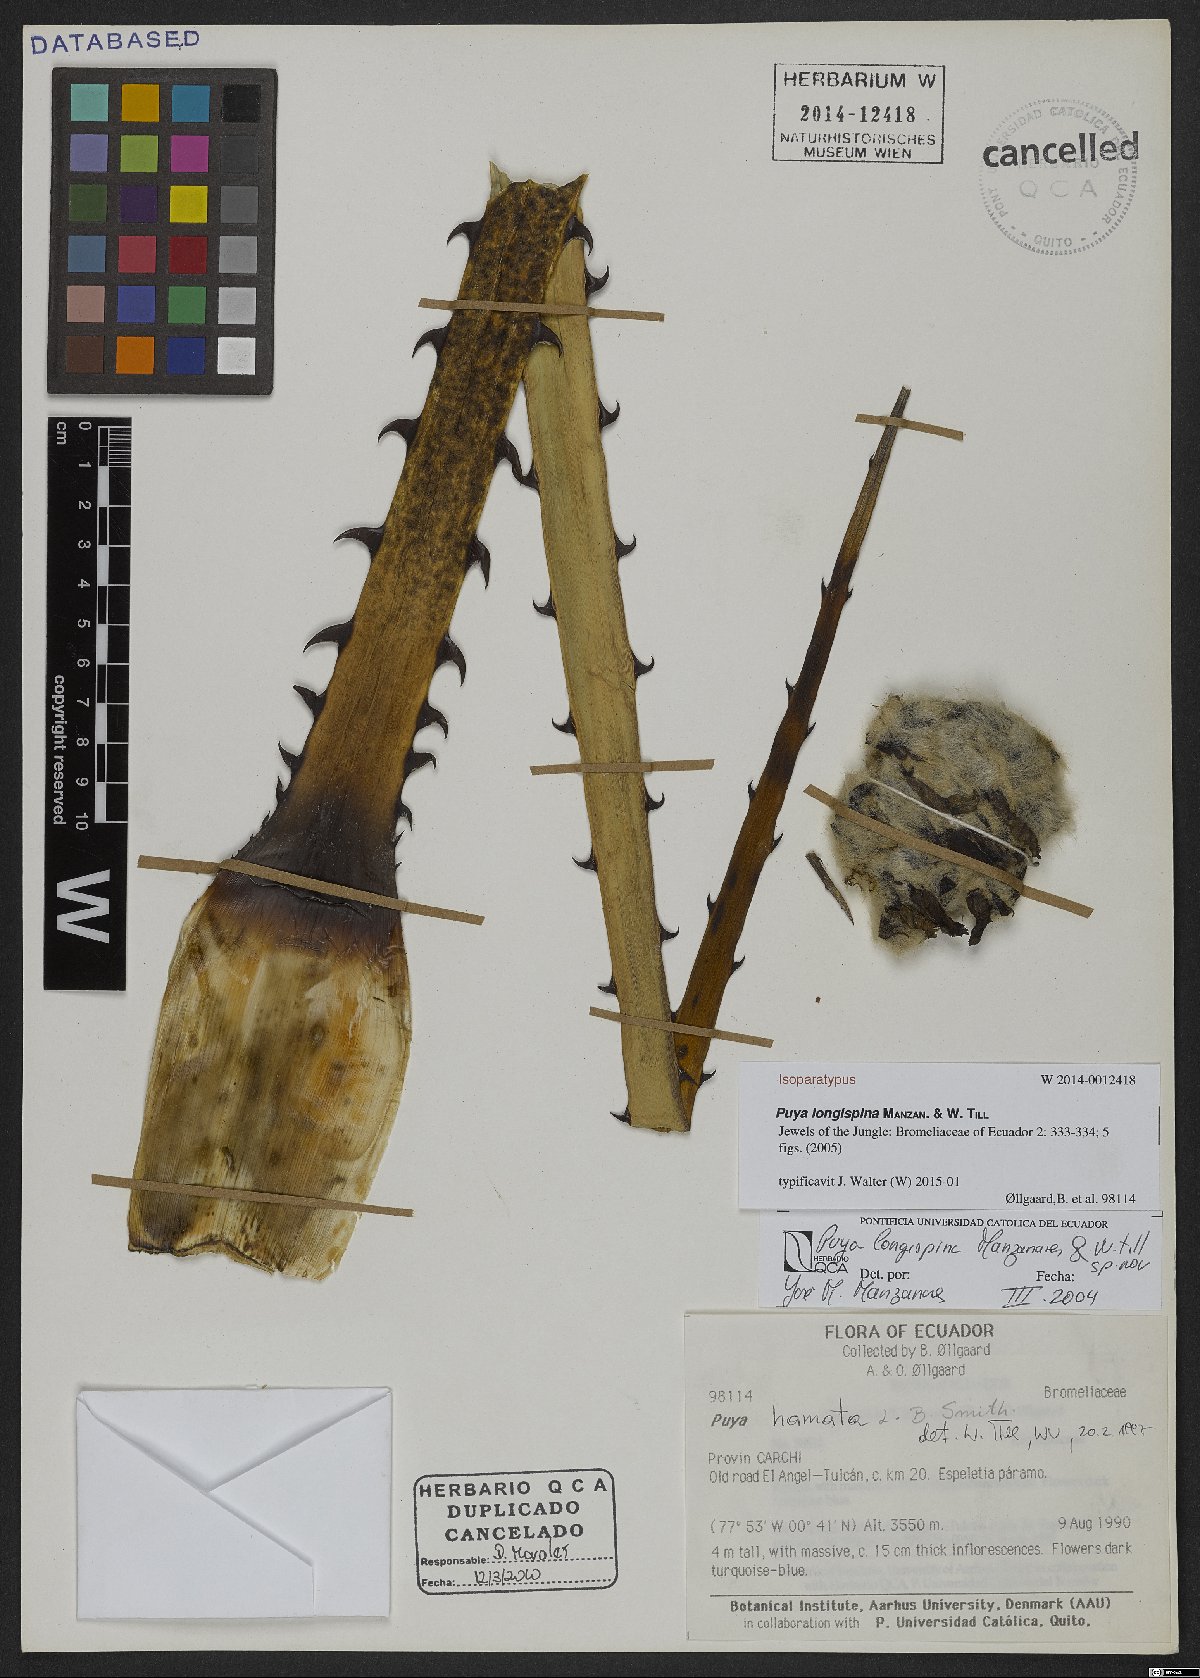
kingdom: Plantae
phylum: Tracheophyta
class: Liliopsida
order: Poales
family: Bromeliaceae
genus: Puya
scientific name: Puya longispina
